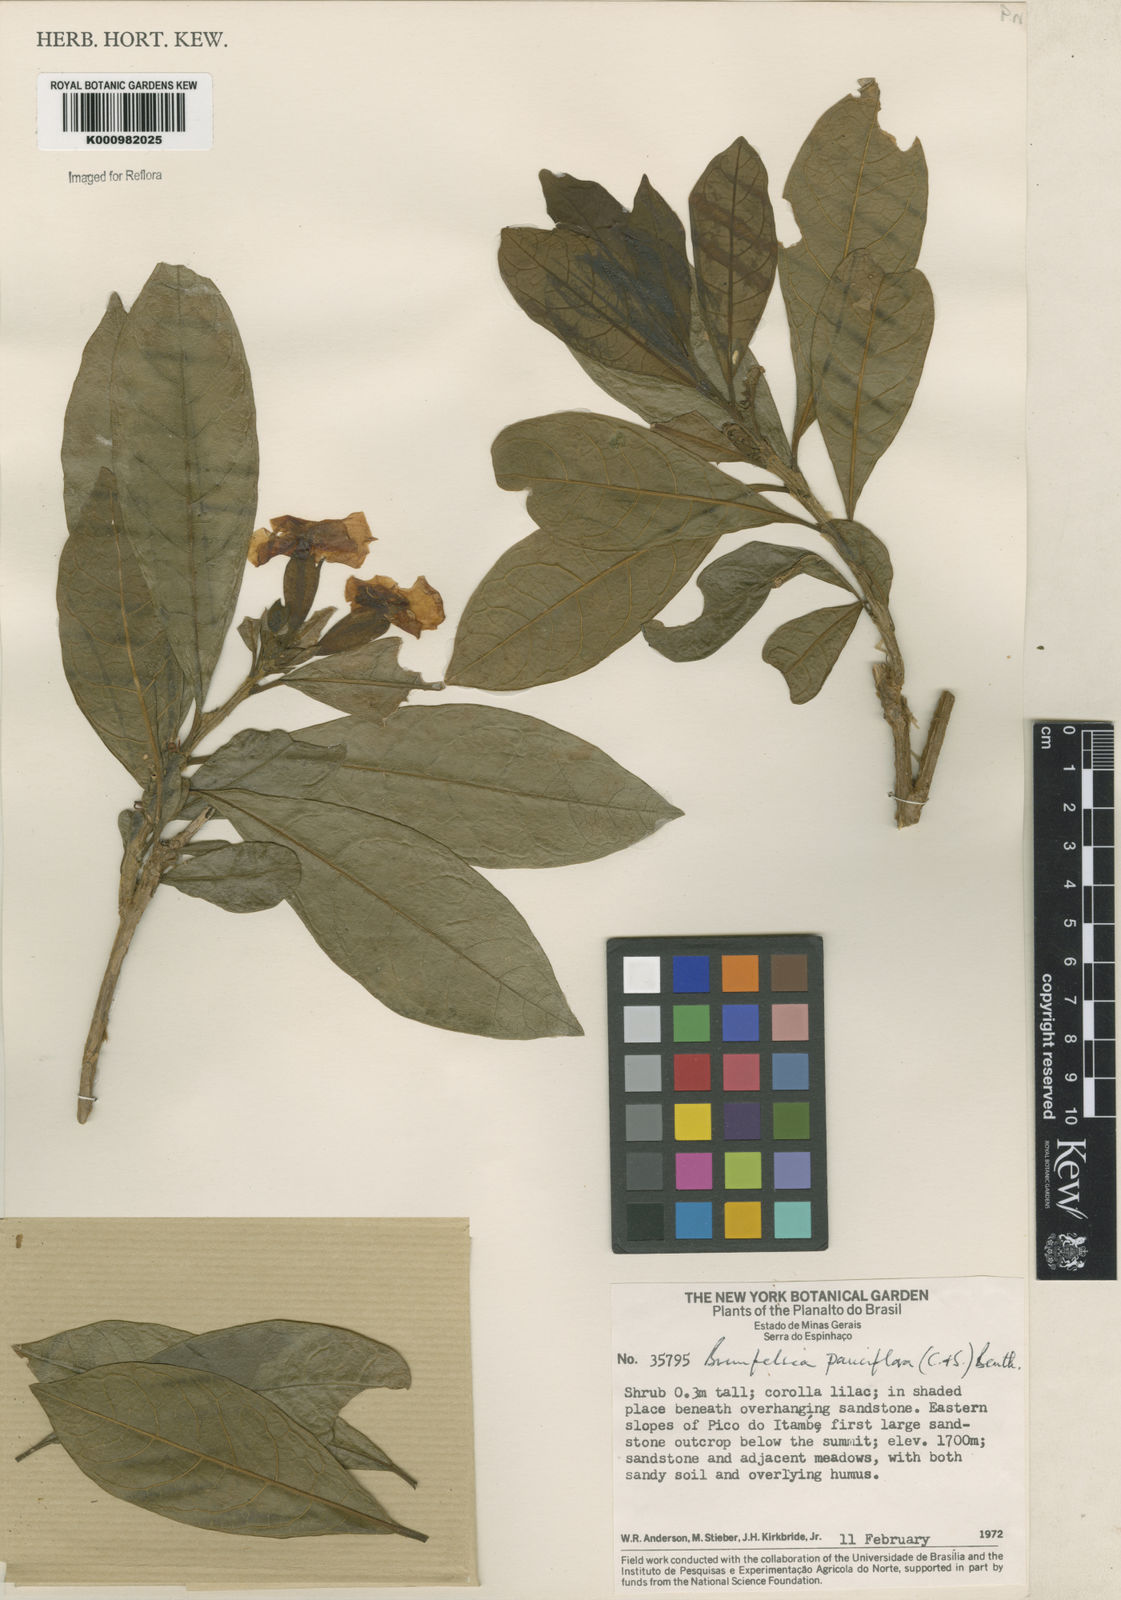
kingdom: Plantae
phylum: Tracheophyta
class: Magnoliopsida
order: Solanales
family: Solanaceae
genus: Brunfelsia
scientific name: Brunfelsia pauciflora
